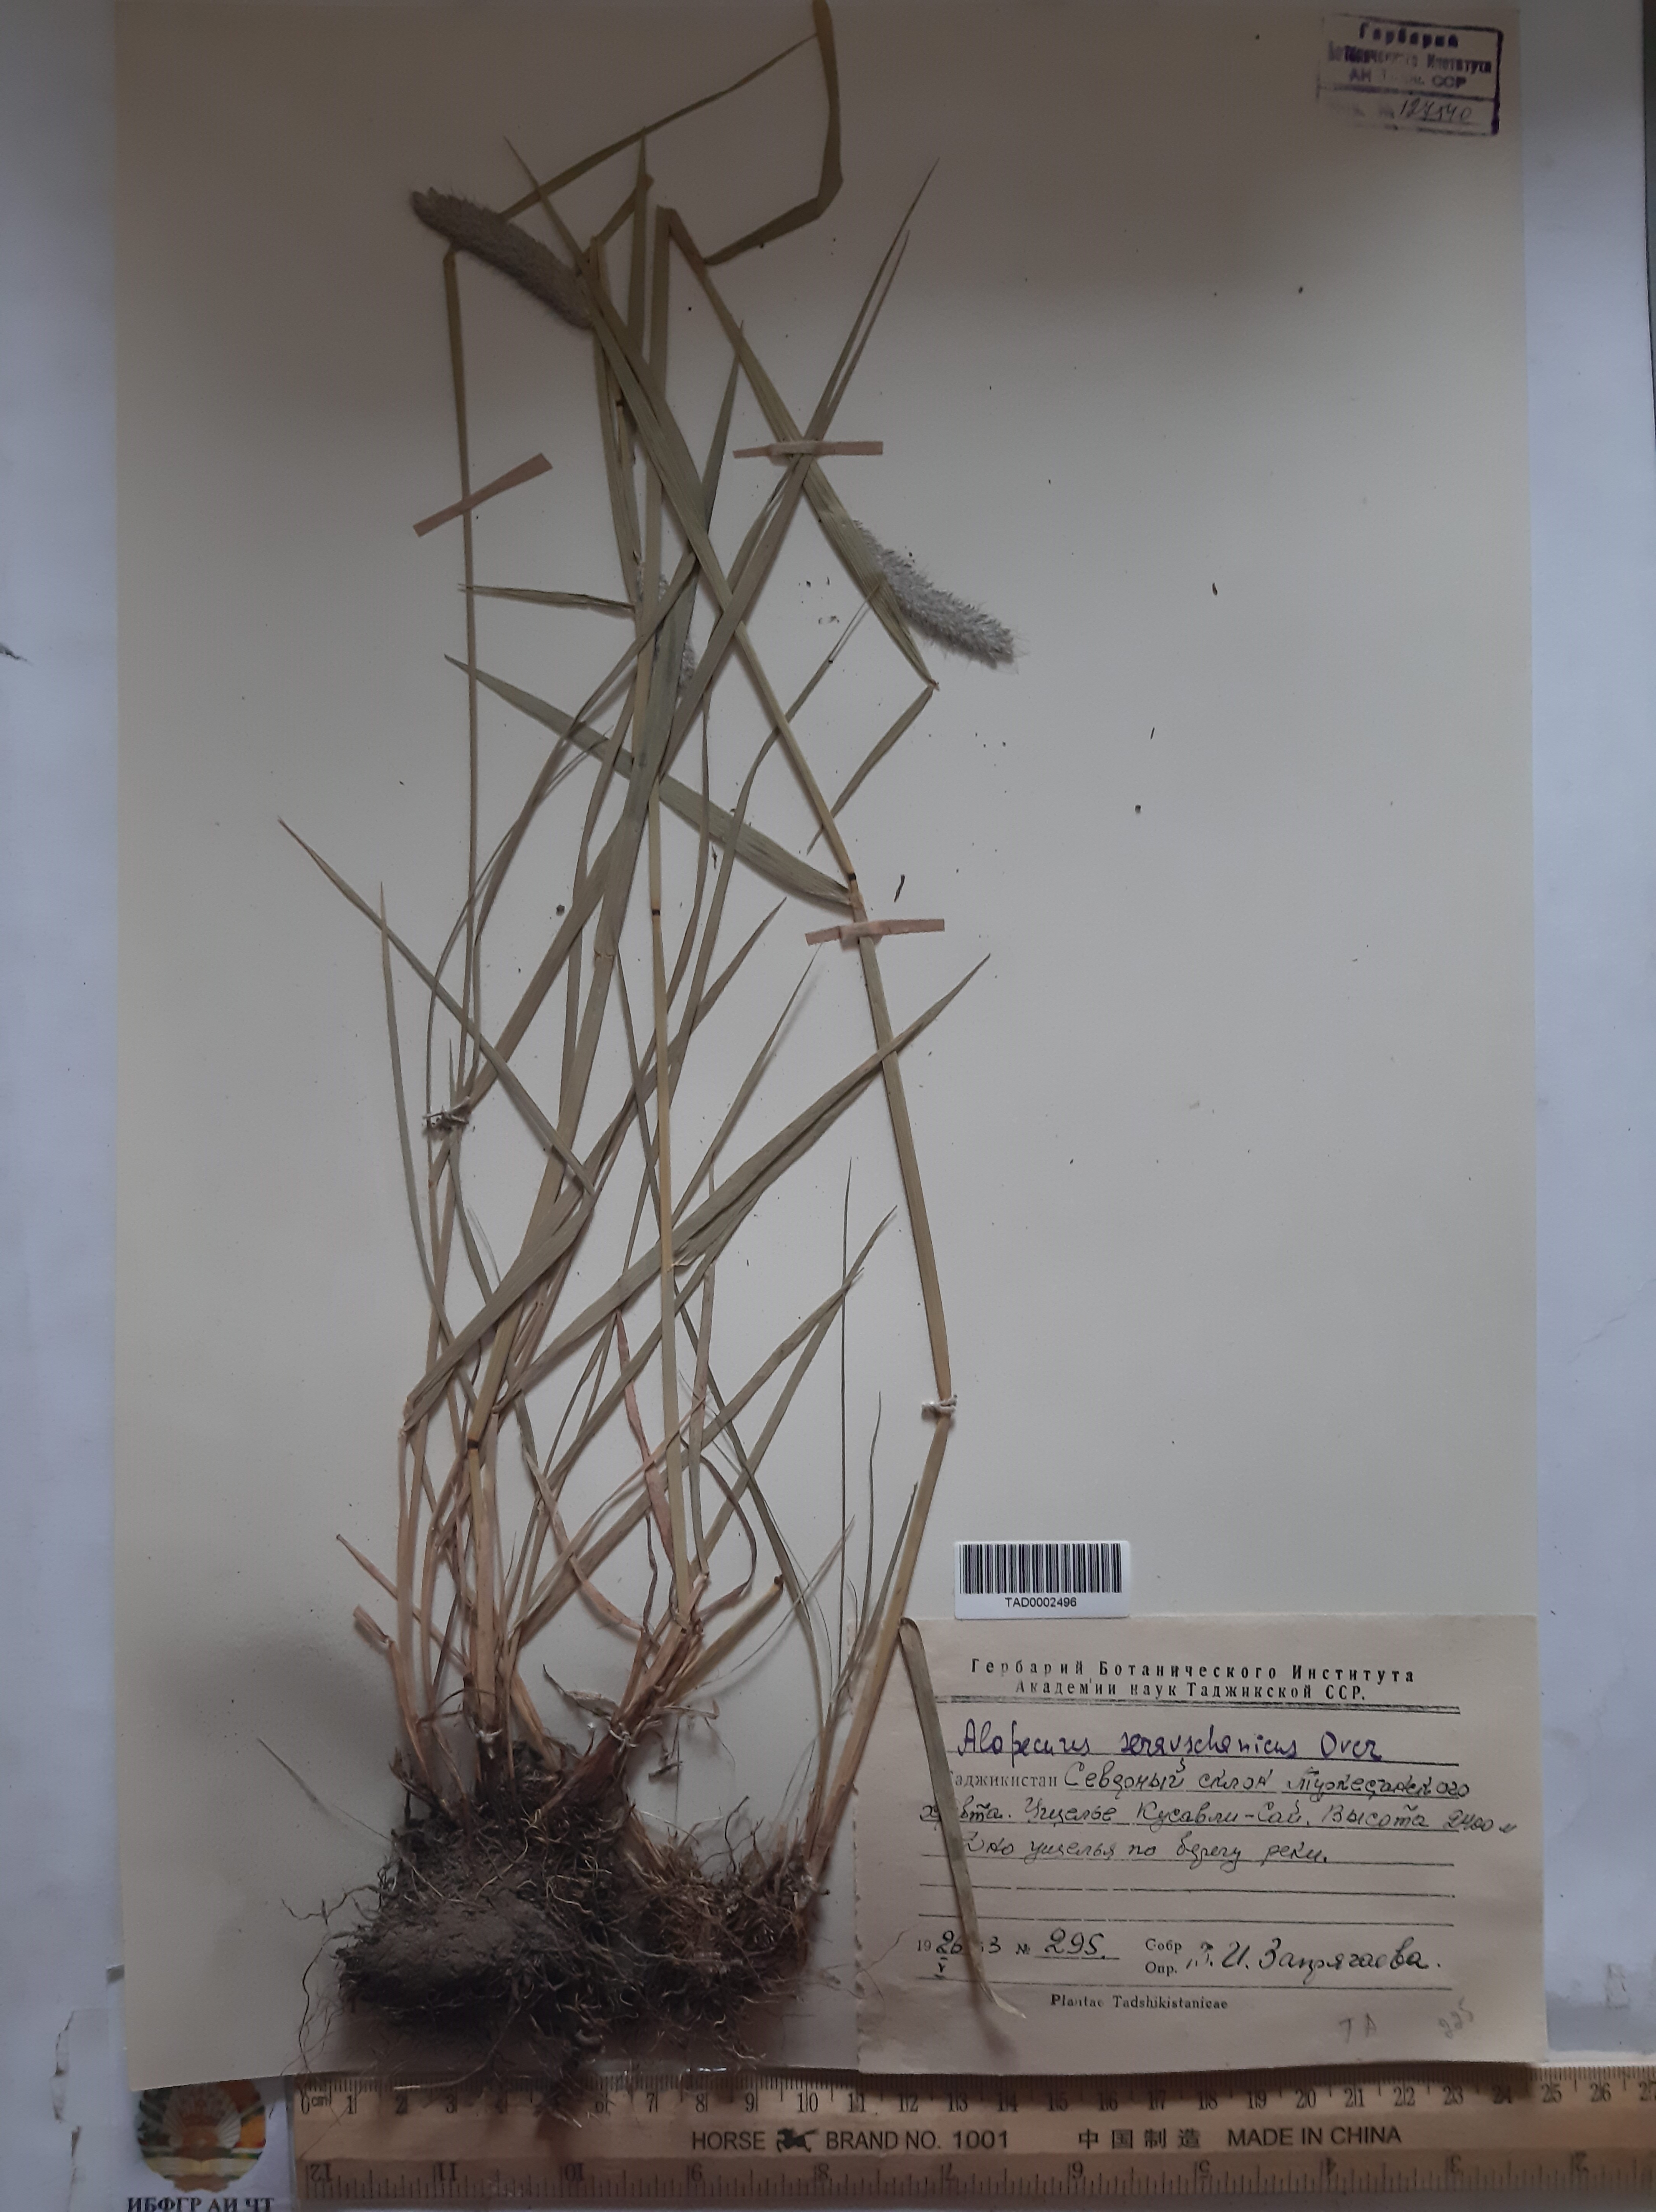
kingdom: Plantae
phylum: Tracheophyta
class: Liliopsida
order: Poales
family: Poaceae
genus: Alopecurus
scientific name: Alopecurus pratensis
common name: Meadow foxtail
